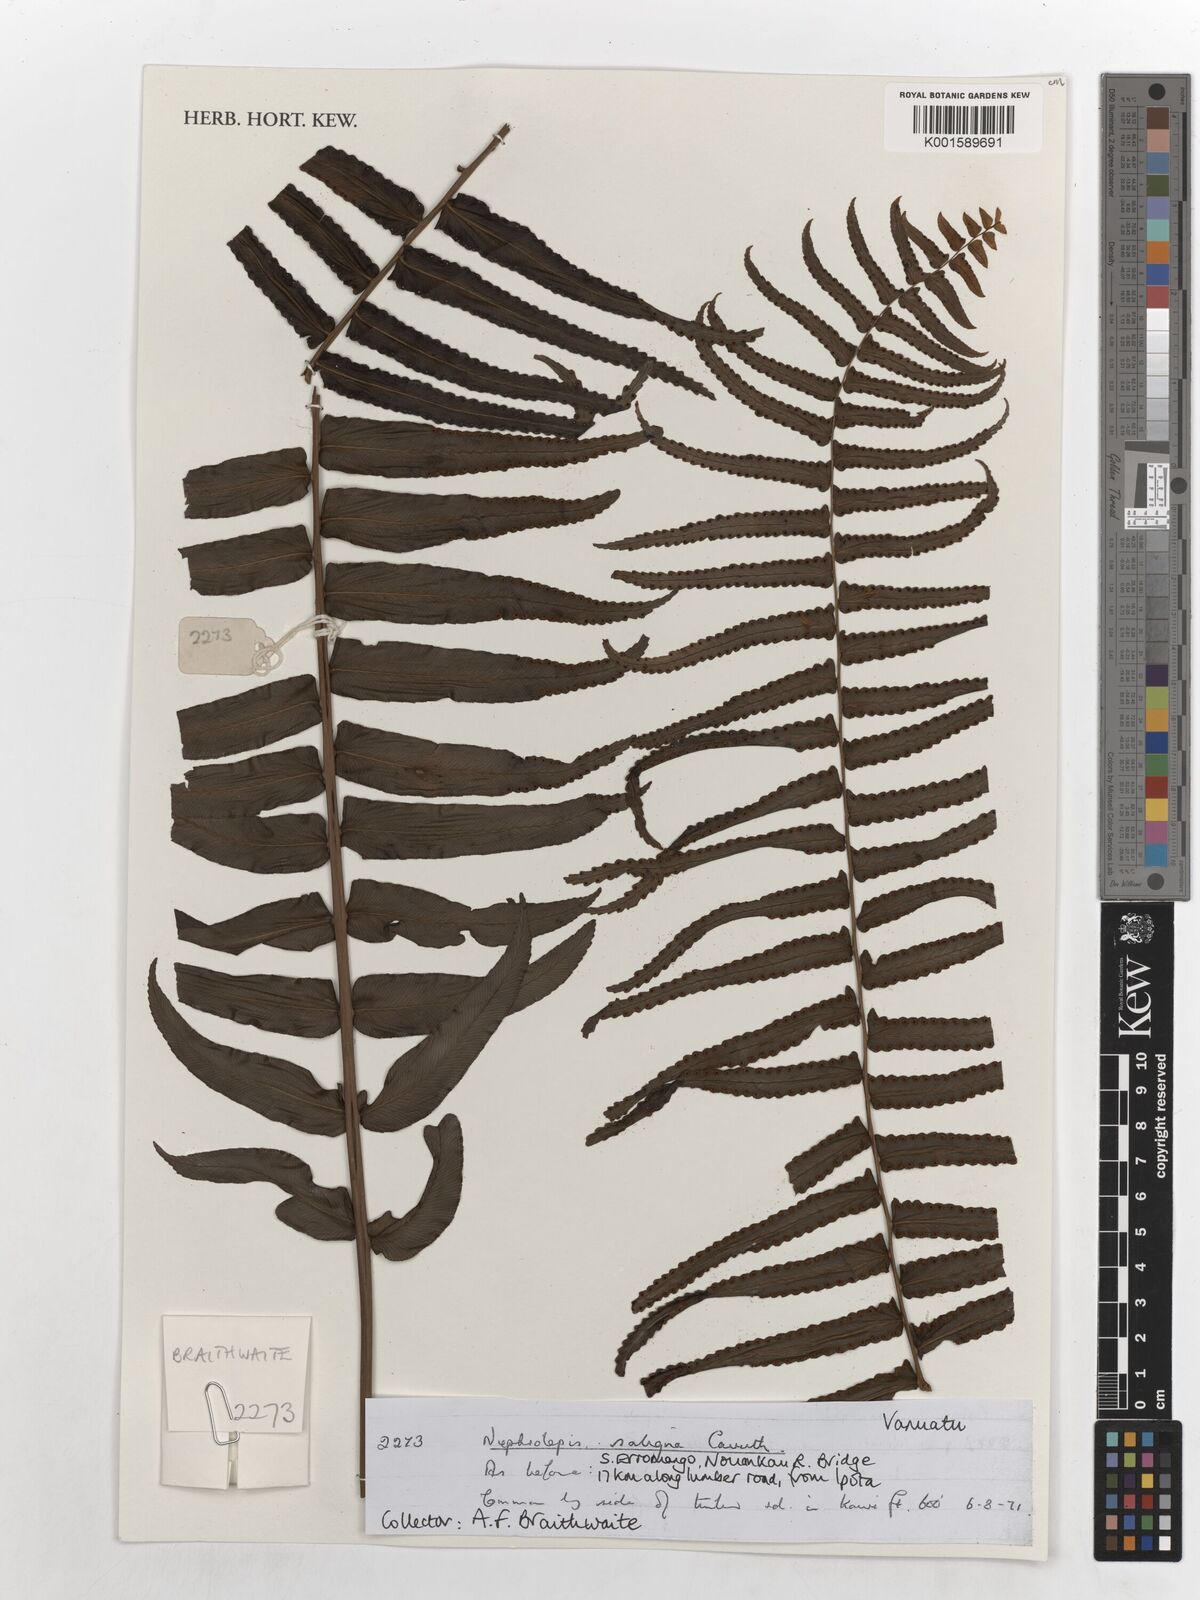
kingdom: Plantae
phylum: Tracheophyta
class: Polypodiopsida
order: Polypodiales
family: Nephrolepidaceae
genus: Nephrolepis
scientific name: Nephrolepis obliterata
